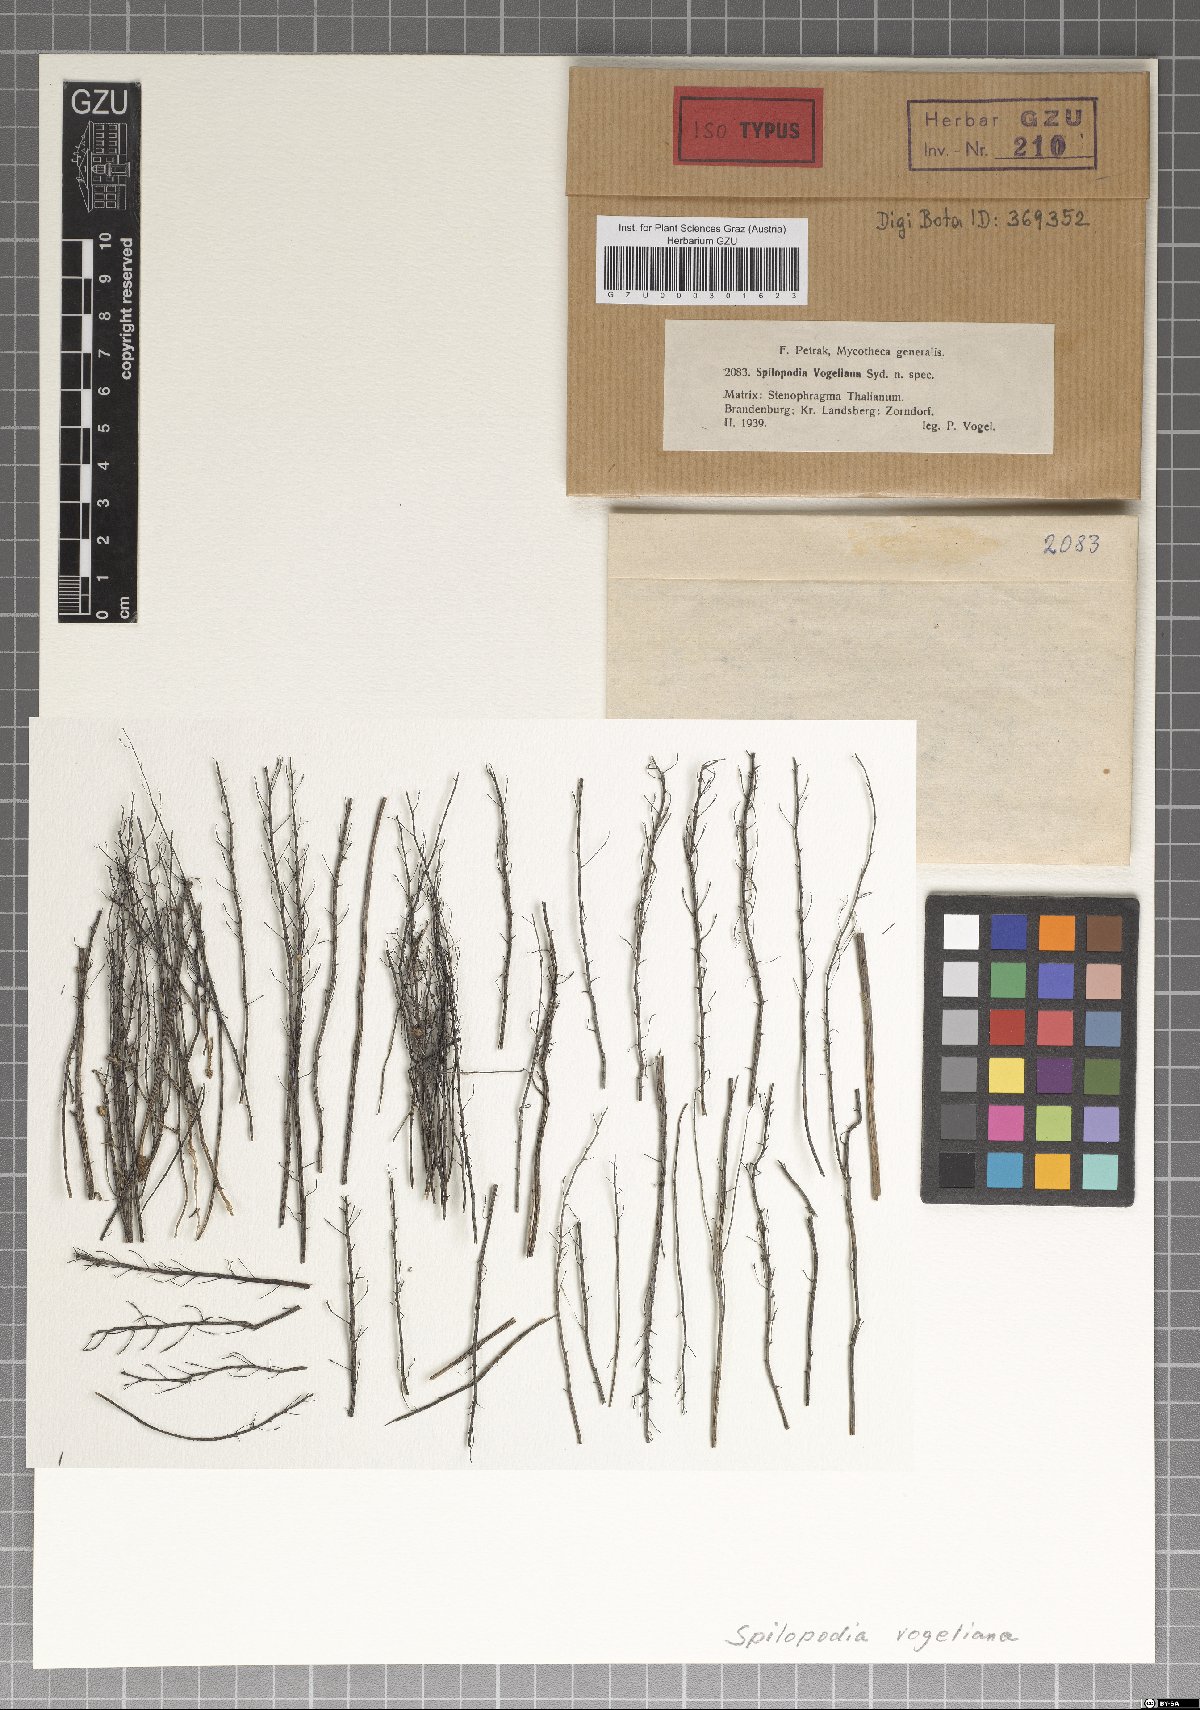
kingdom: Fungi
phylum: Ascomycota
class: Leotiomycetes
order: Helotiales
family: Drepanopezizaceae
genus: Spilopodia
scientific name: Spilopodia vogelii
